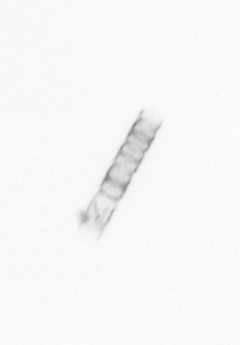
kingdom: Chromista
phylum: Ochrophyta
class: Bacillariophyceae
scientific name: Bacillariophyceae
